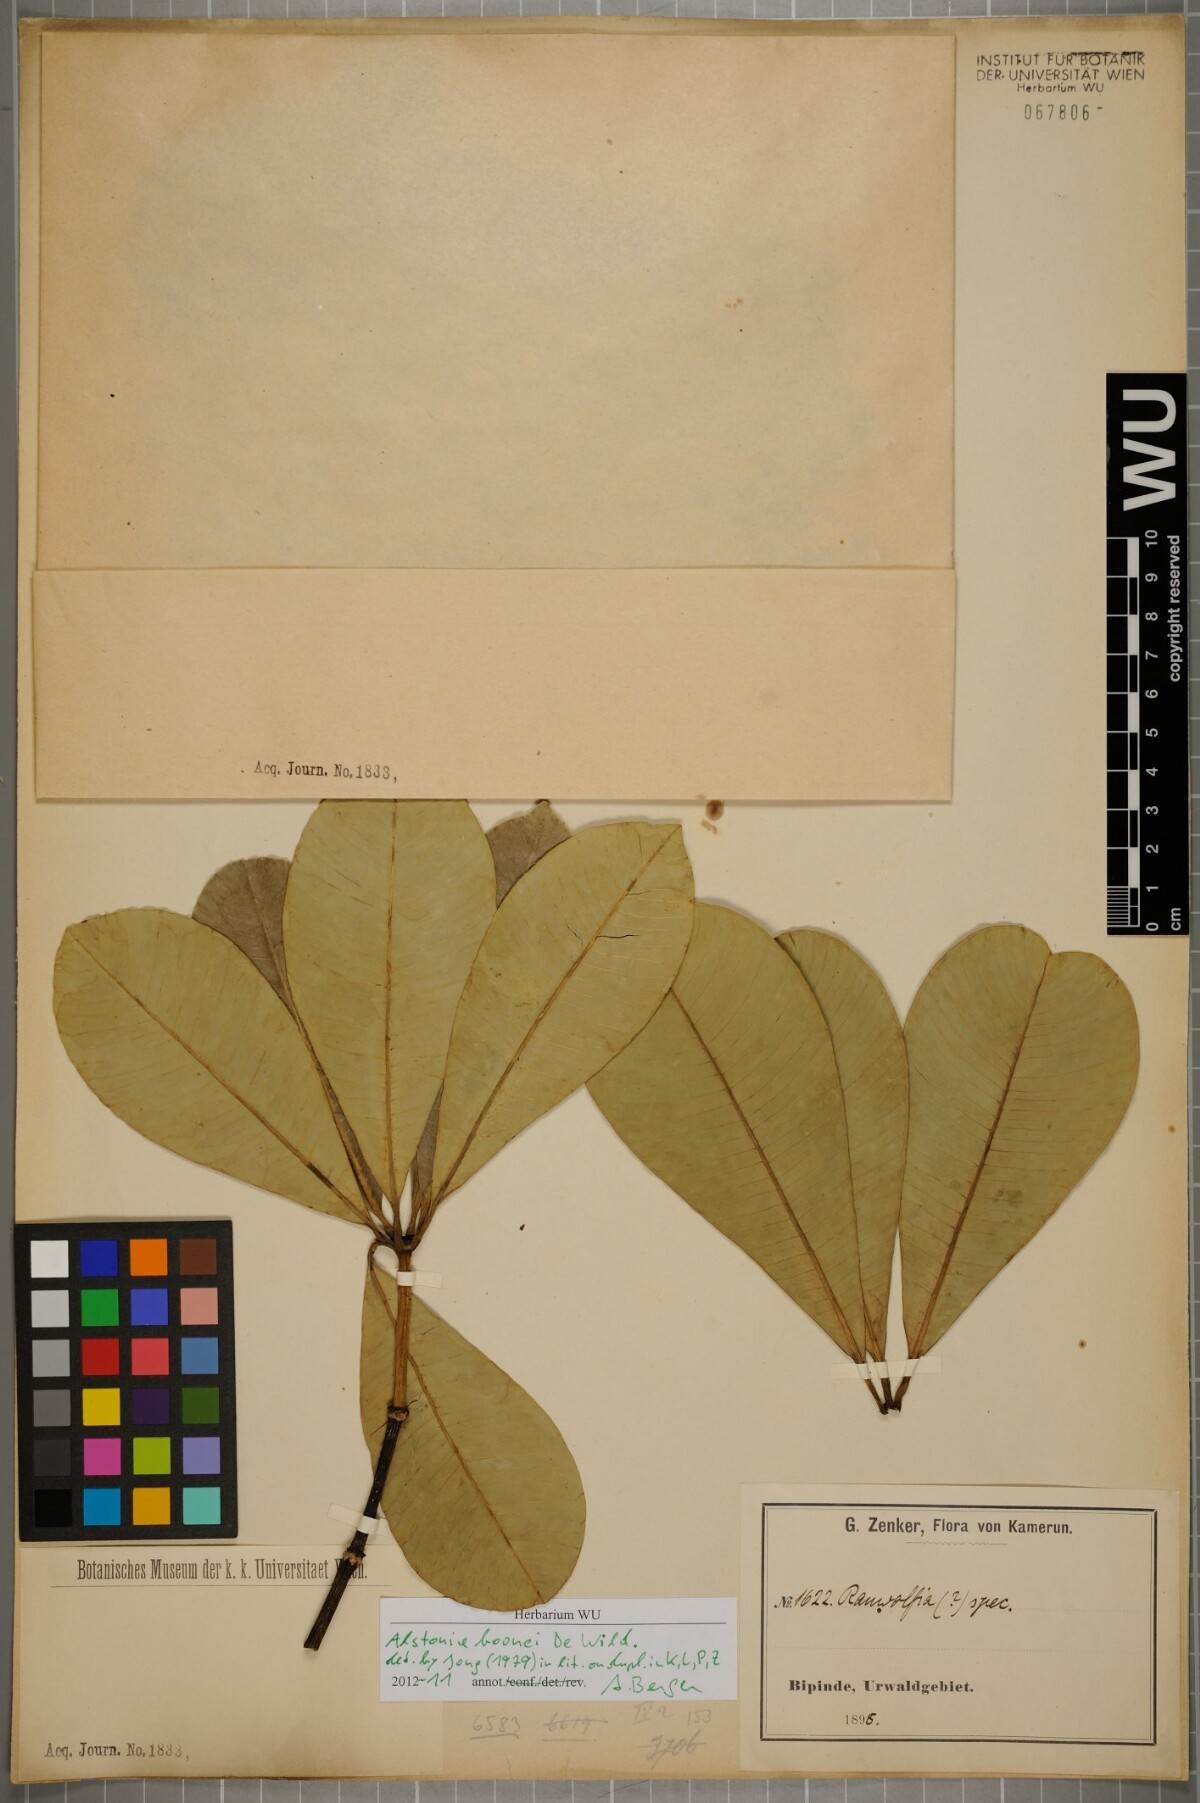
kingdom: Plantae
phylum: Tracheophyta
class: Magnoliopsida
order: Gentianales
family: Apocynaceae
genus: Alstonia
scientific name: Alstonia boonei
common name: Alstonia
